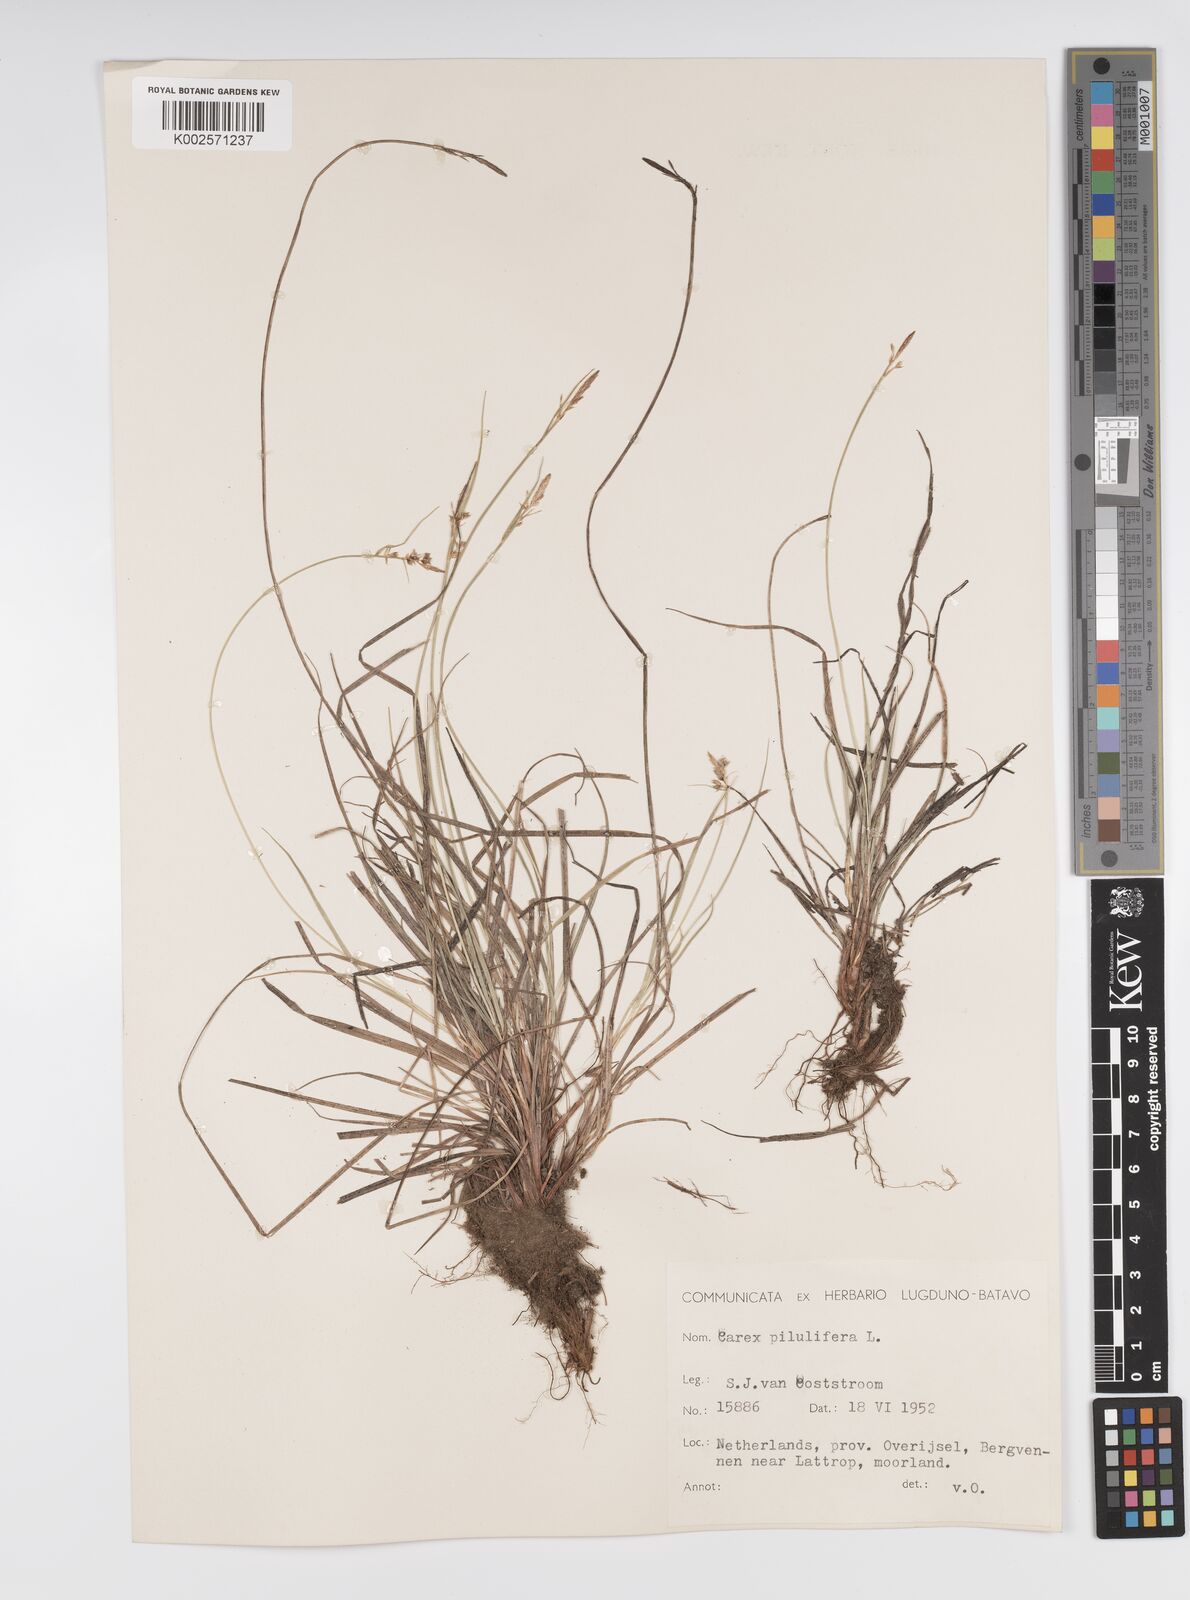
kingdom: Plantae
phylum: Tracheophyta
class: Liliopsida
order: Poales
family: Cyperaceae
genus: Carex
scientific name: Carex pilulifera
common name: Pill sedge
